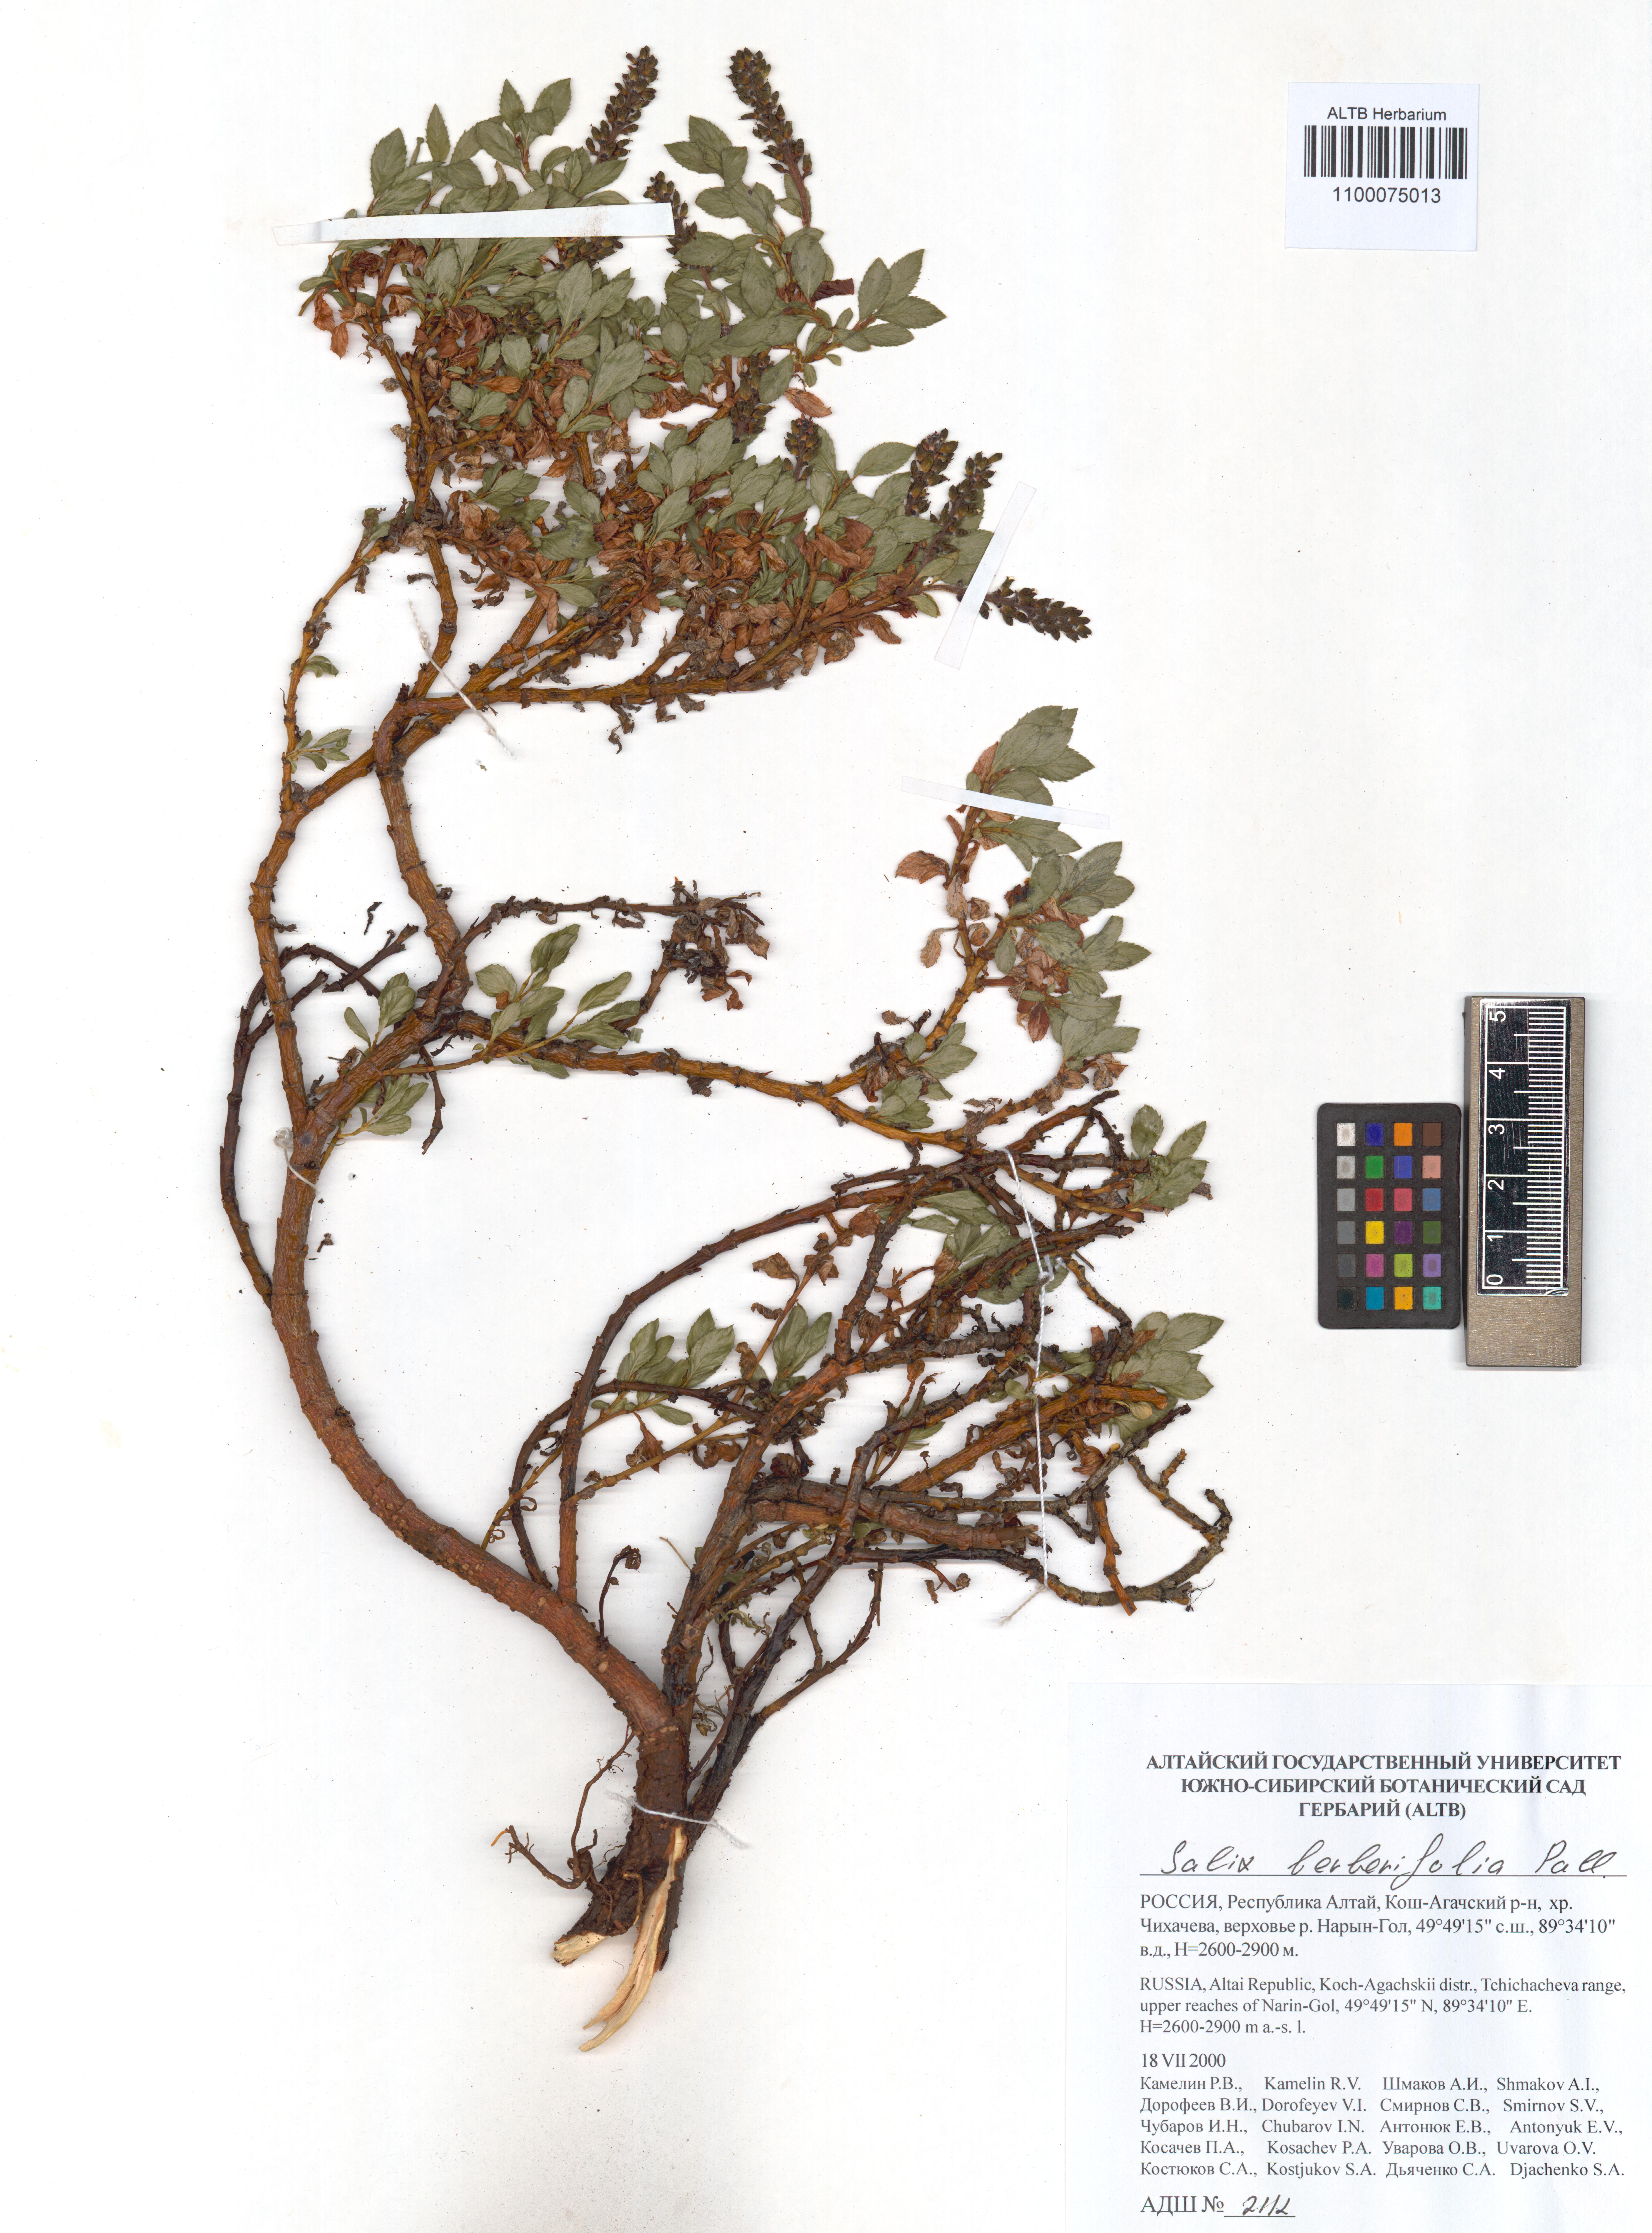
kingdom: Plantae
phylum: Tracheophyta
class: Magnoliopsida
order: Malpighiales
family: Salicaceae
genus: Salix
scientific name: Salix berberifolia
